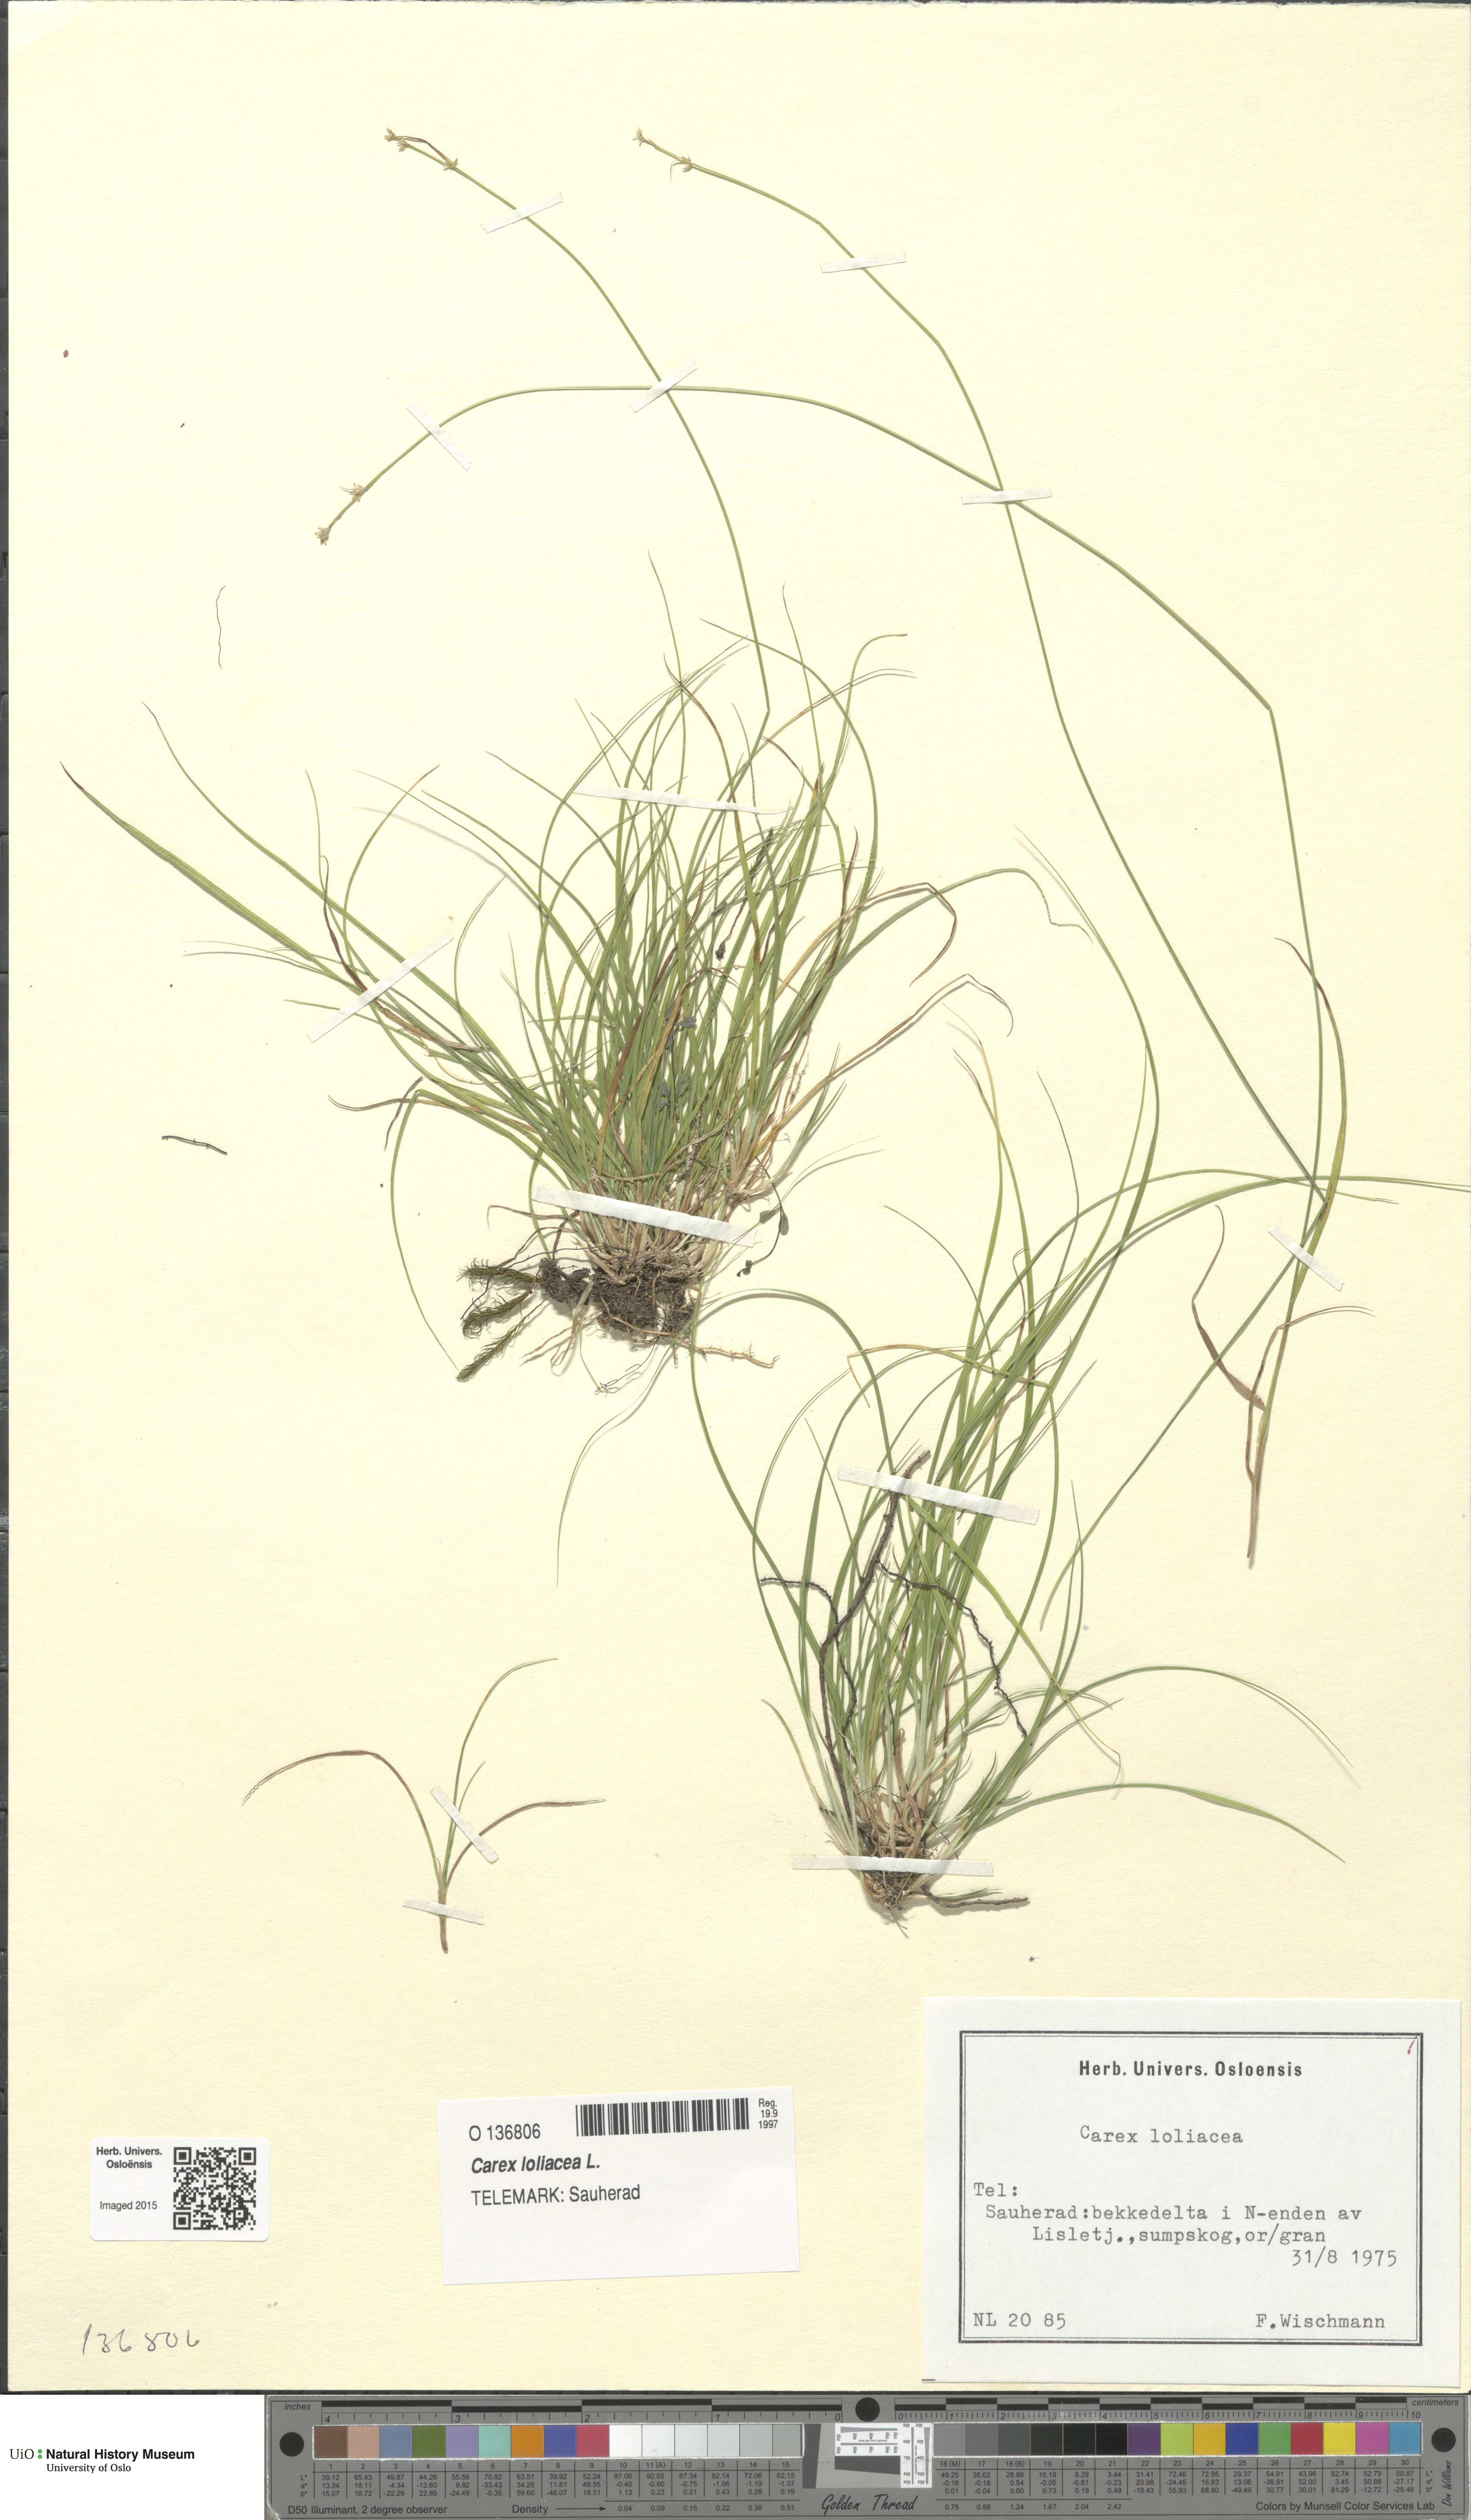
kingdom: Plantae
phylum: Tracheophyta
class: Liliopsida
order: Poales
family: Cyperaceae
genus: Carex
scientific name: Carex loliacea
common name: Ryegrass sedge
